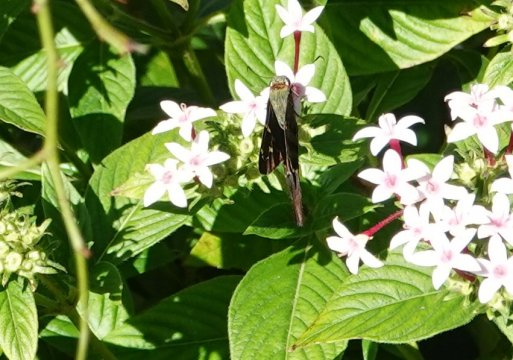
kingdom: Animalia
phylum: Arthropoda
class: Insecta
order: Lepidoptera
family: Hesperiidae
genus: Urbanus
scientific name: Urbanus proteus
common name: Long-tailed Skipper
